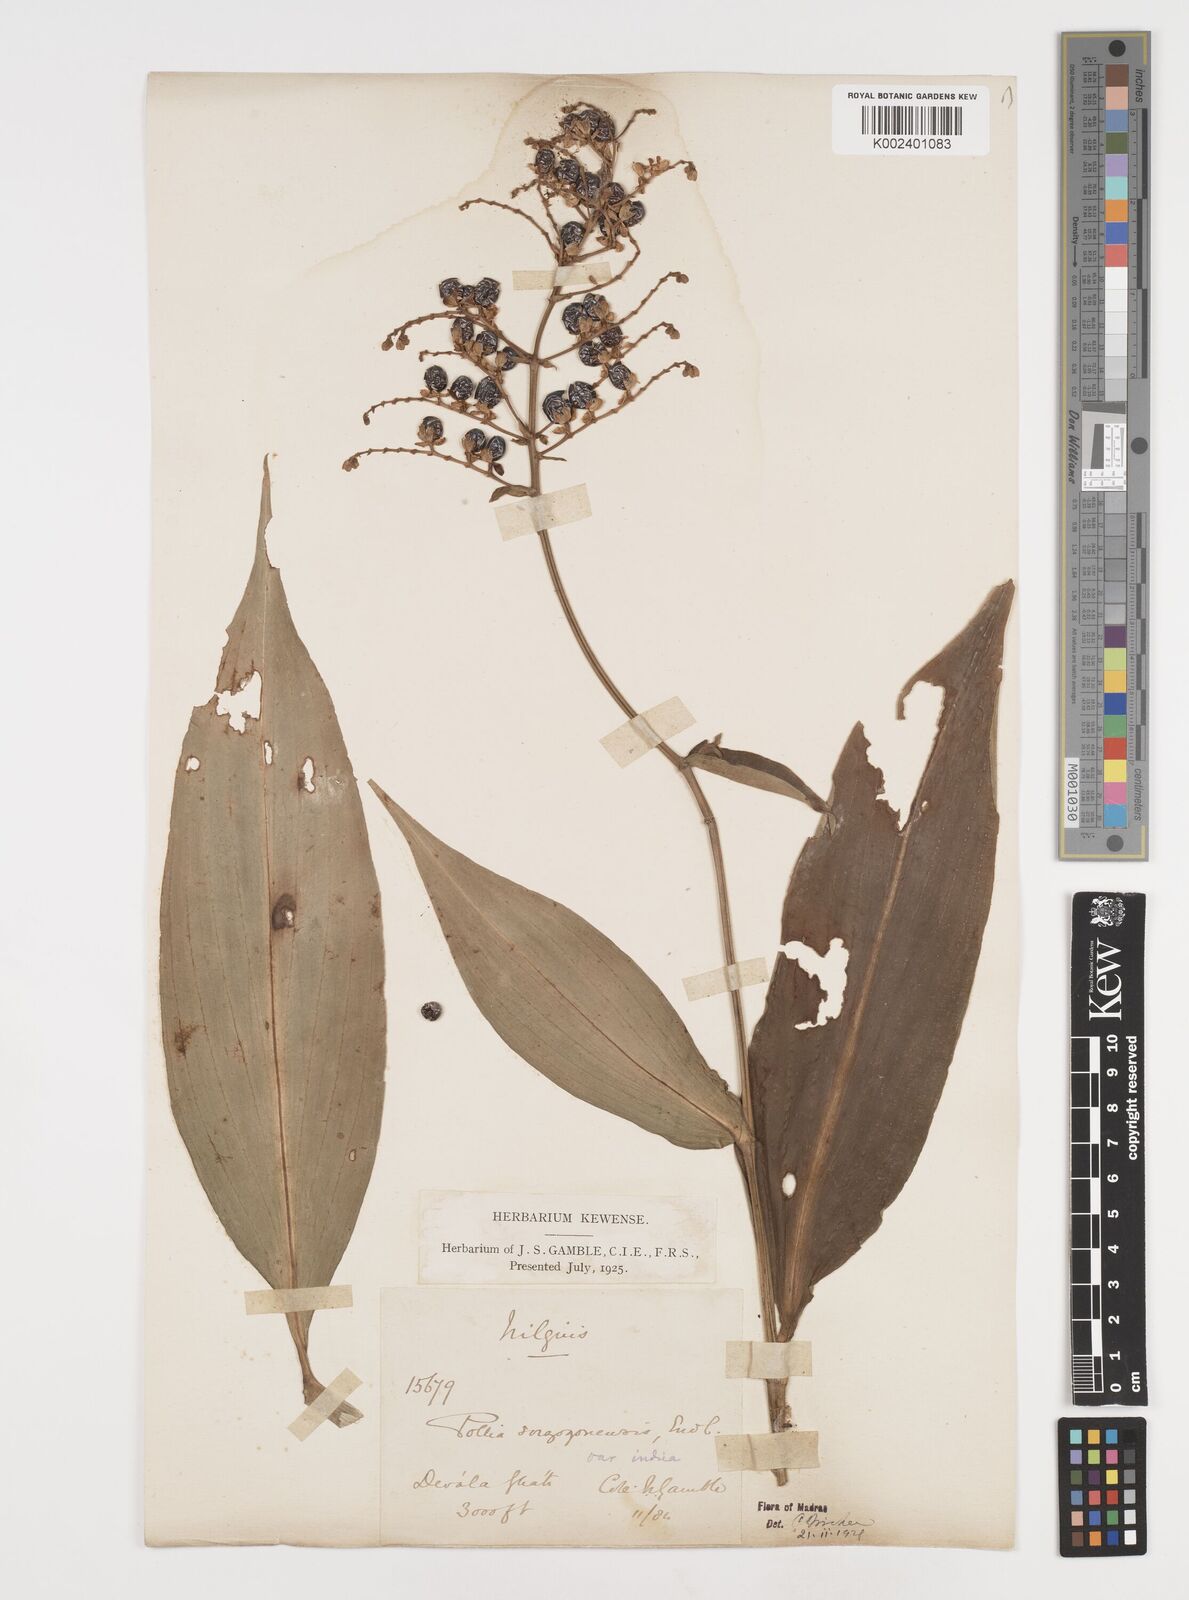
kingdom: Plantae
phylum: Tracheophyta
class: Liliopsida
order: Commelinales
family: Commelinaceae
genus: Pollia
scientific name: Pollia secundiflora
